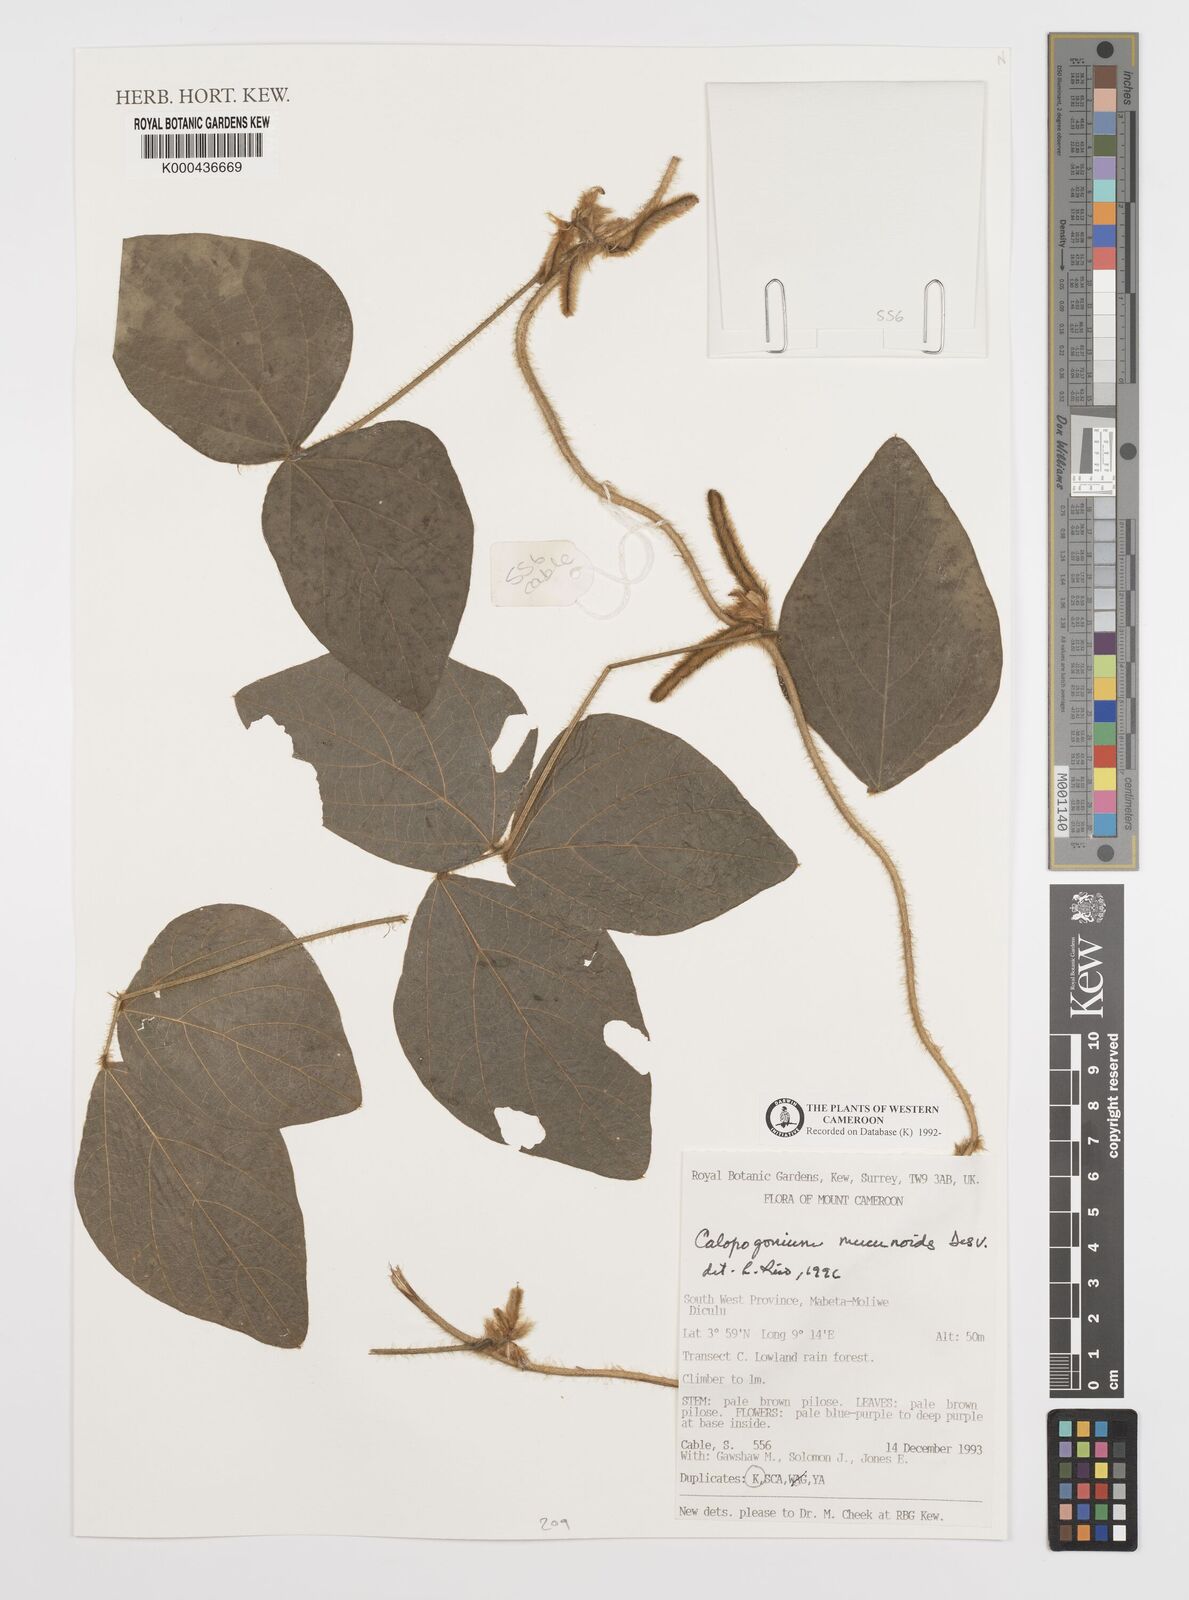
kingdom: Plantae
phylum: Tracheophyta
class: Magnoliopsida
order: Fabales
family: Fabaceae
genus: Calopogonium
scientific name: Calopogonium mucunoides
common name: Calopo
